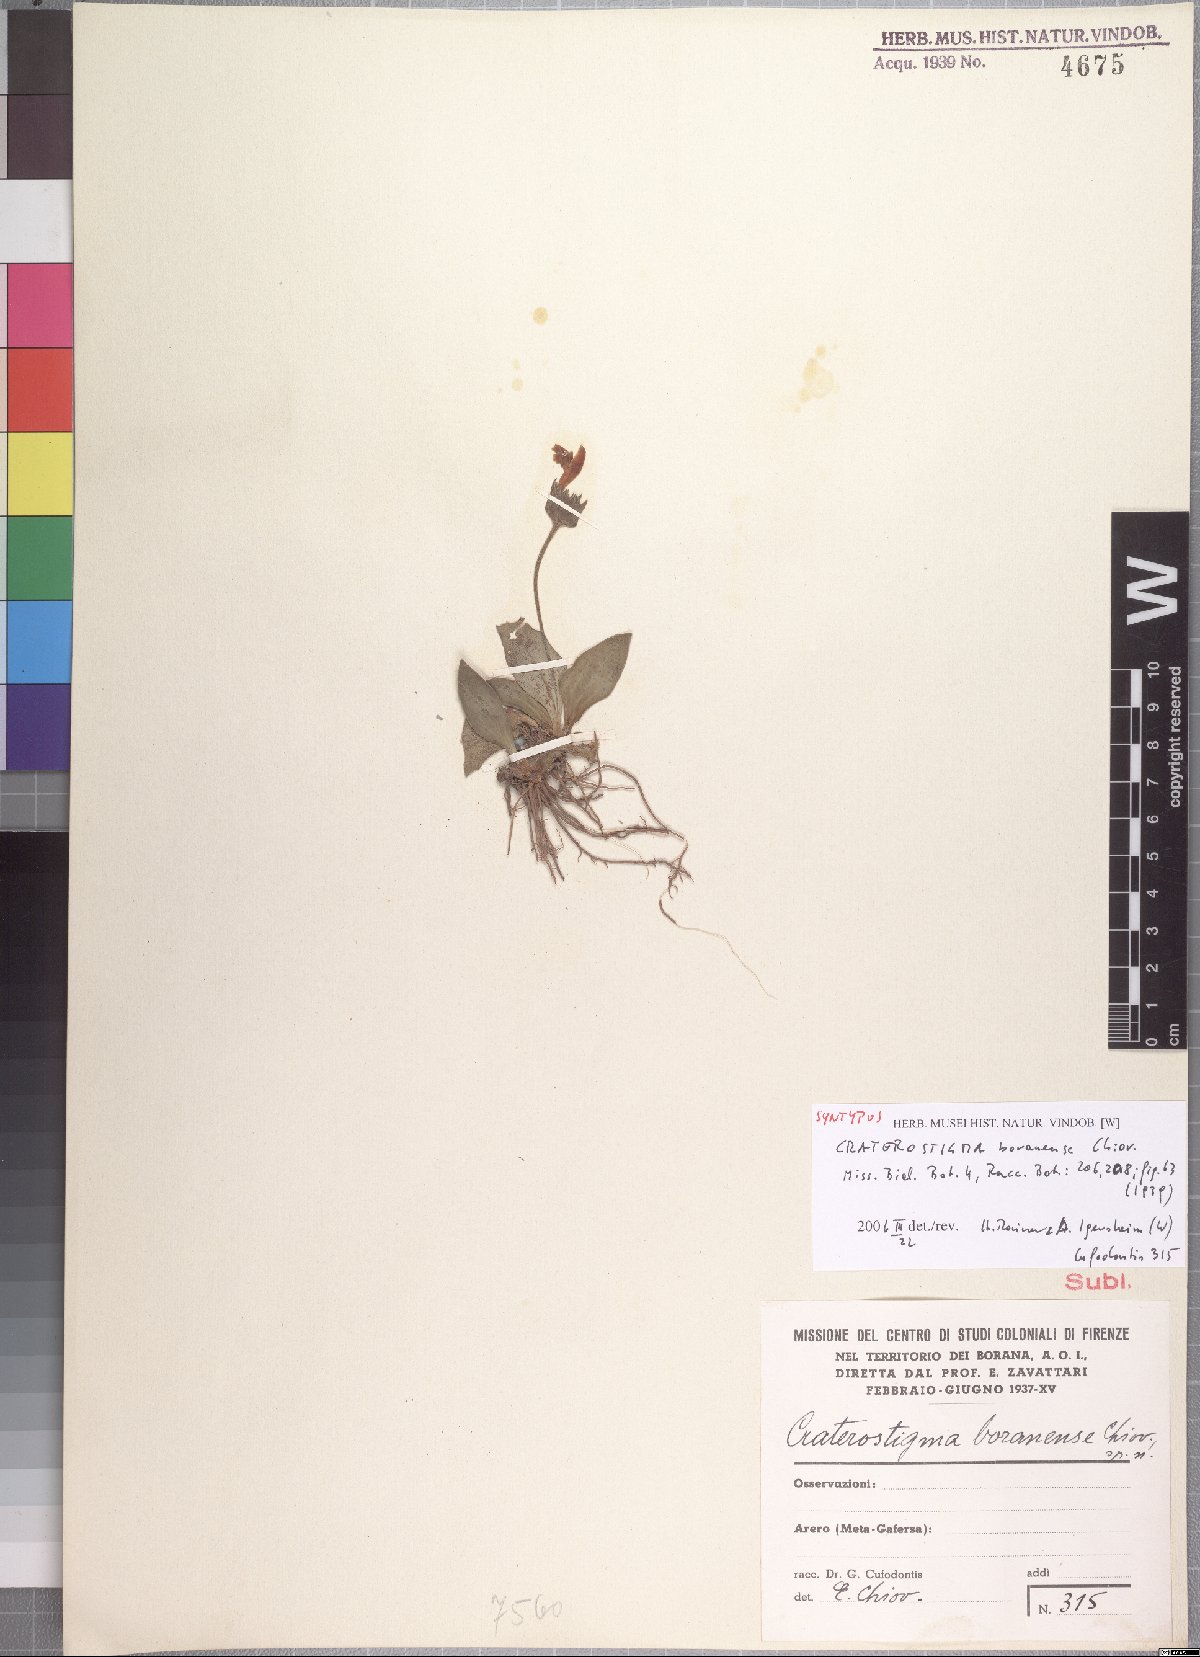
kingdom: Plantae
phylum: Tracheophyta
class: Magnoliopsida
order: Lamiales
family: Linderniaceae
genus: Craterostigma
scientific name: Craterostigma smithii
